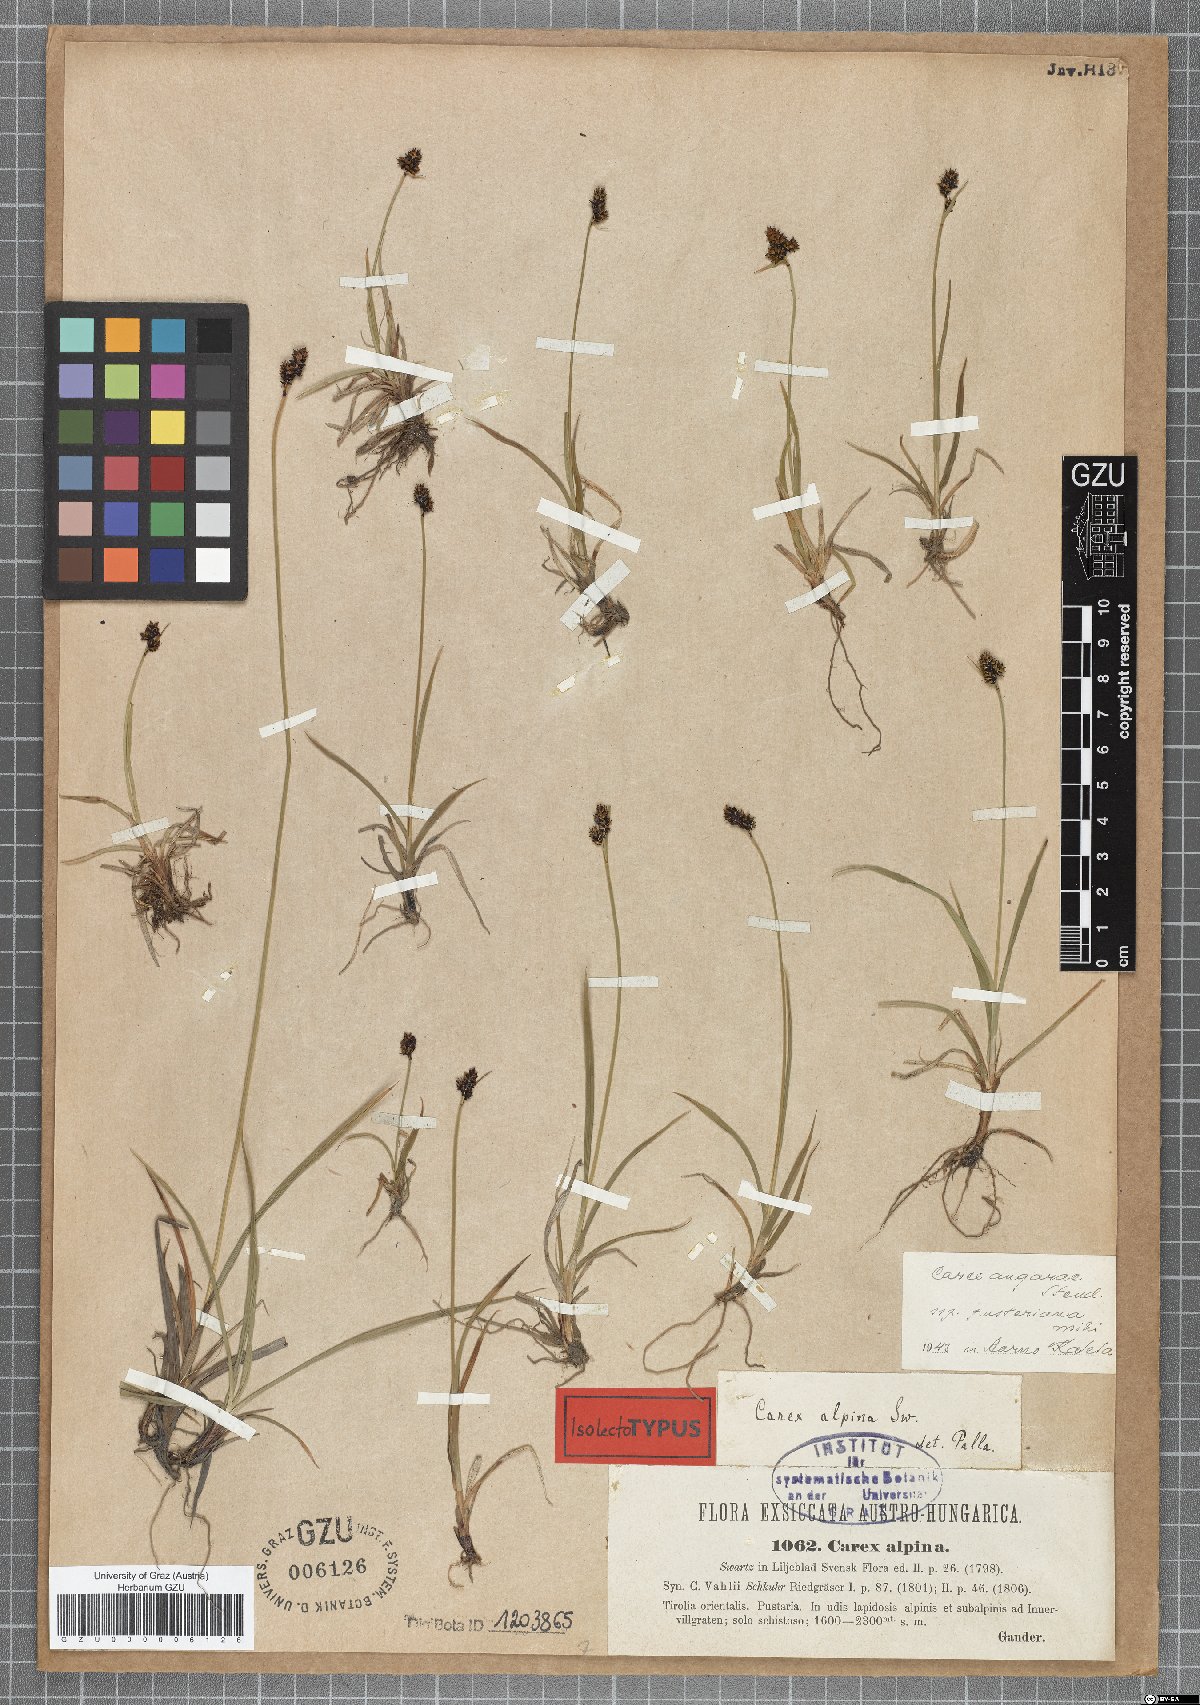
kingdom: Plantae
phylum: Tracheophyta
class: Liliopsida
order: Poales
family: Cyperaceae
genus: Carex
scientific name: Carex norvegica
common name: Close-headed alpine-sedge
